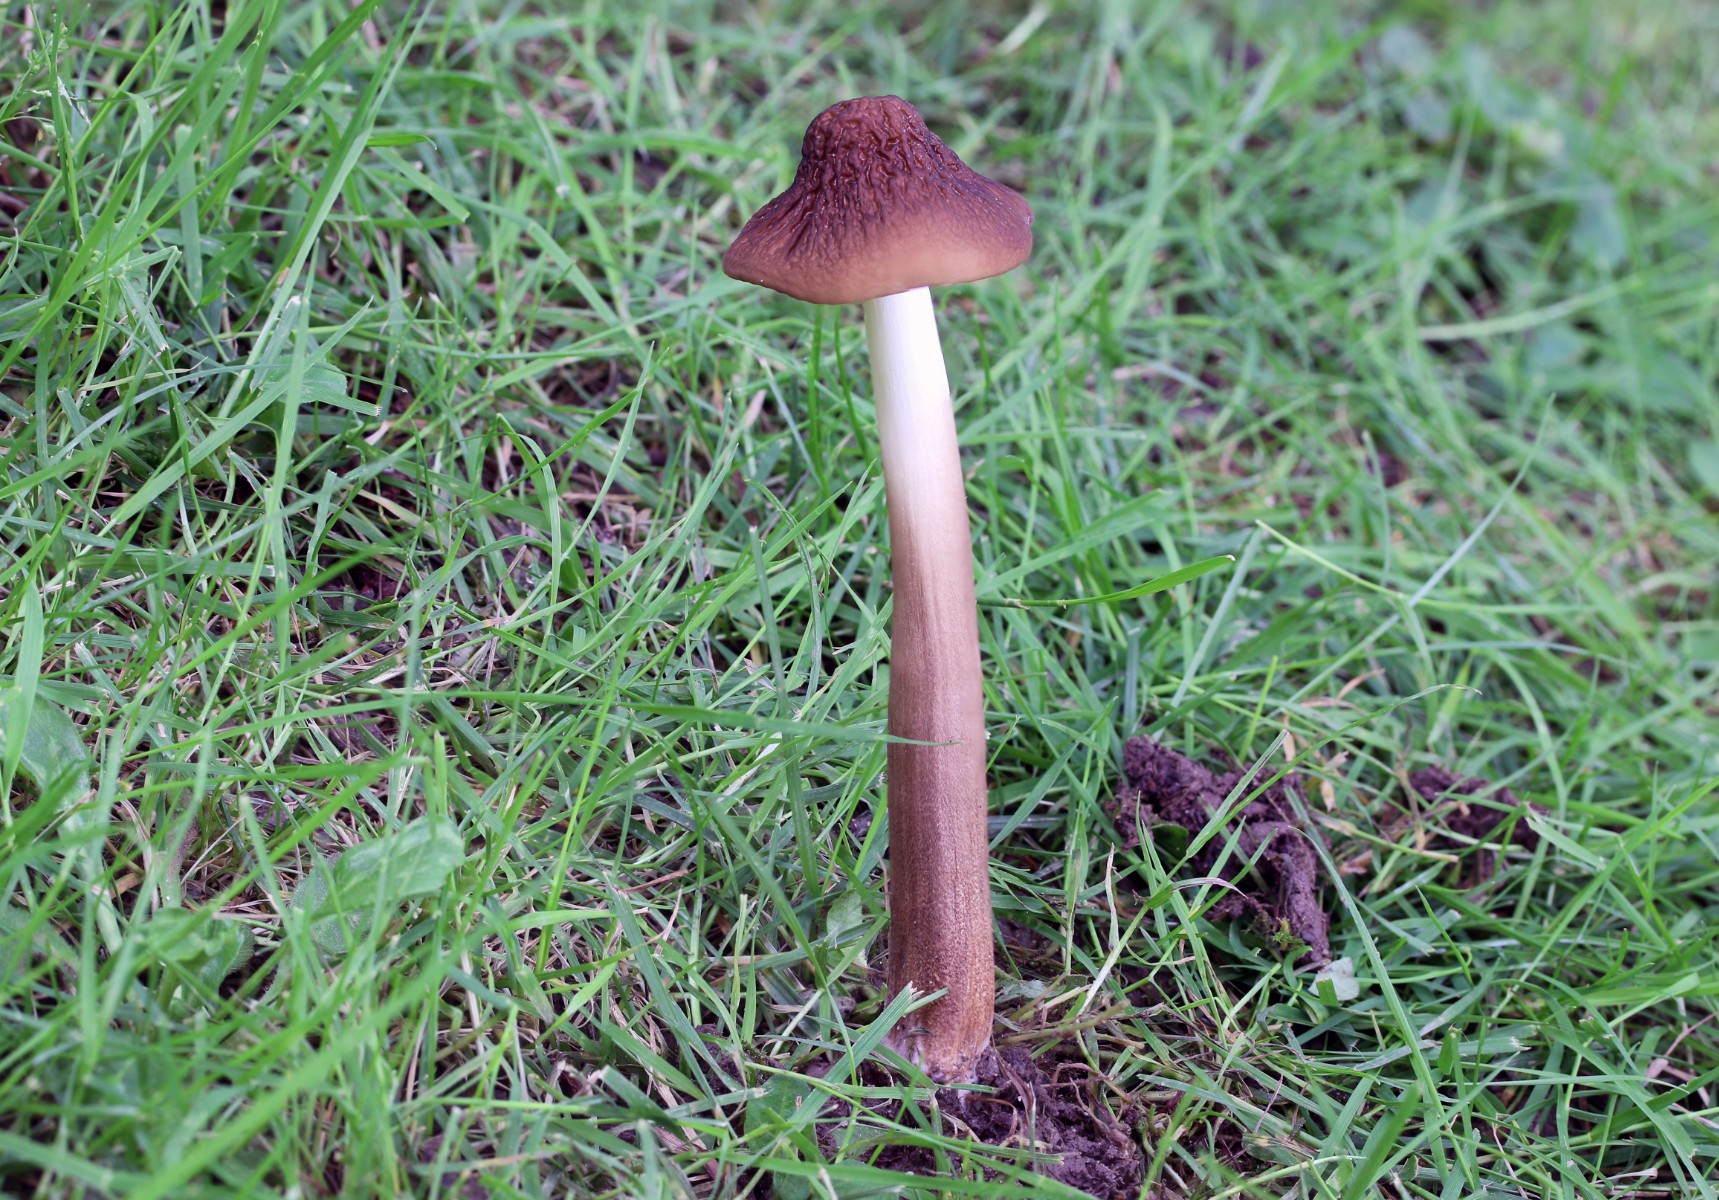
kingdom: Fungi
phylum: Basidiomycota
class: Agaricomycetes
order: Agaricales
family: Physalacriaceae
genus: Hymenopellis
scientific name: Hymenopellis radicata
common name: almindelig pælerodshat
